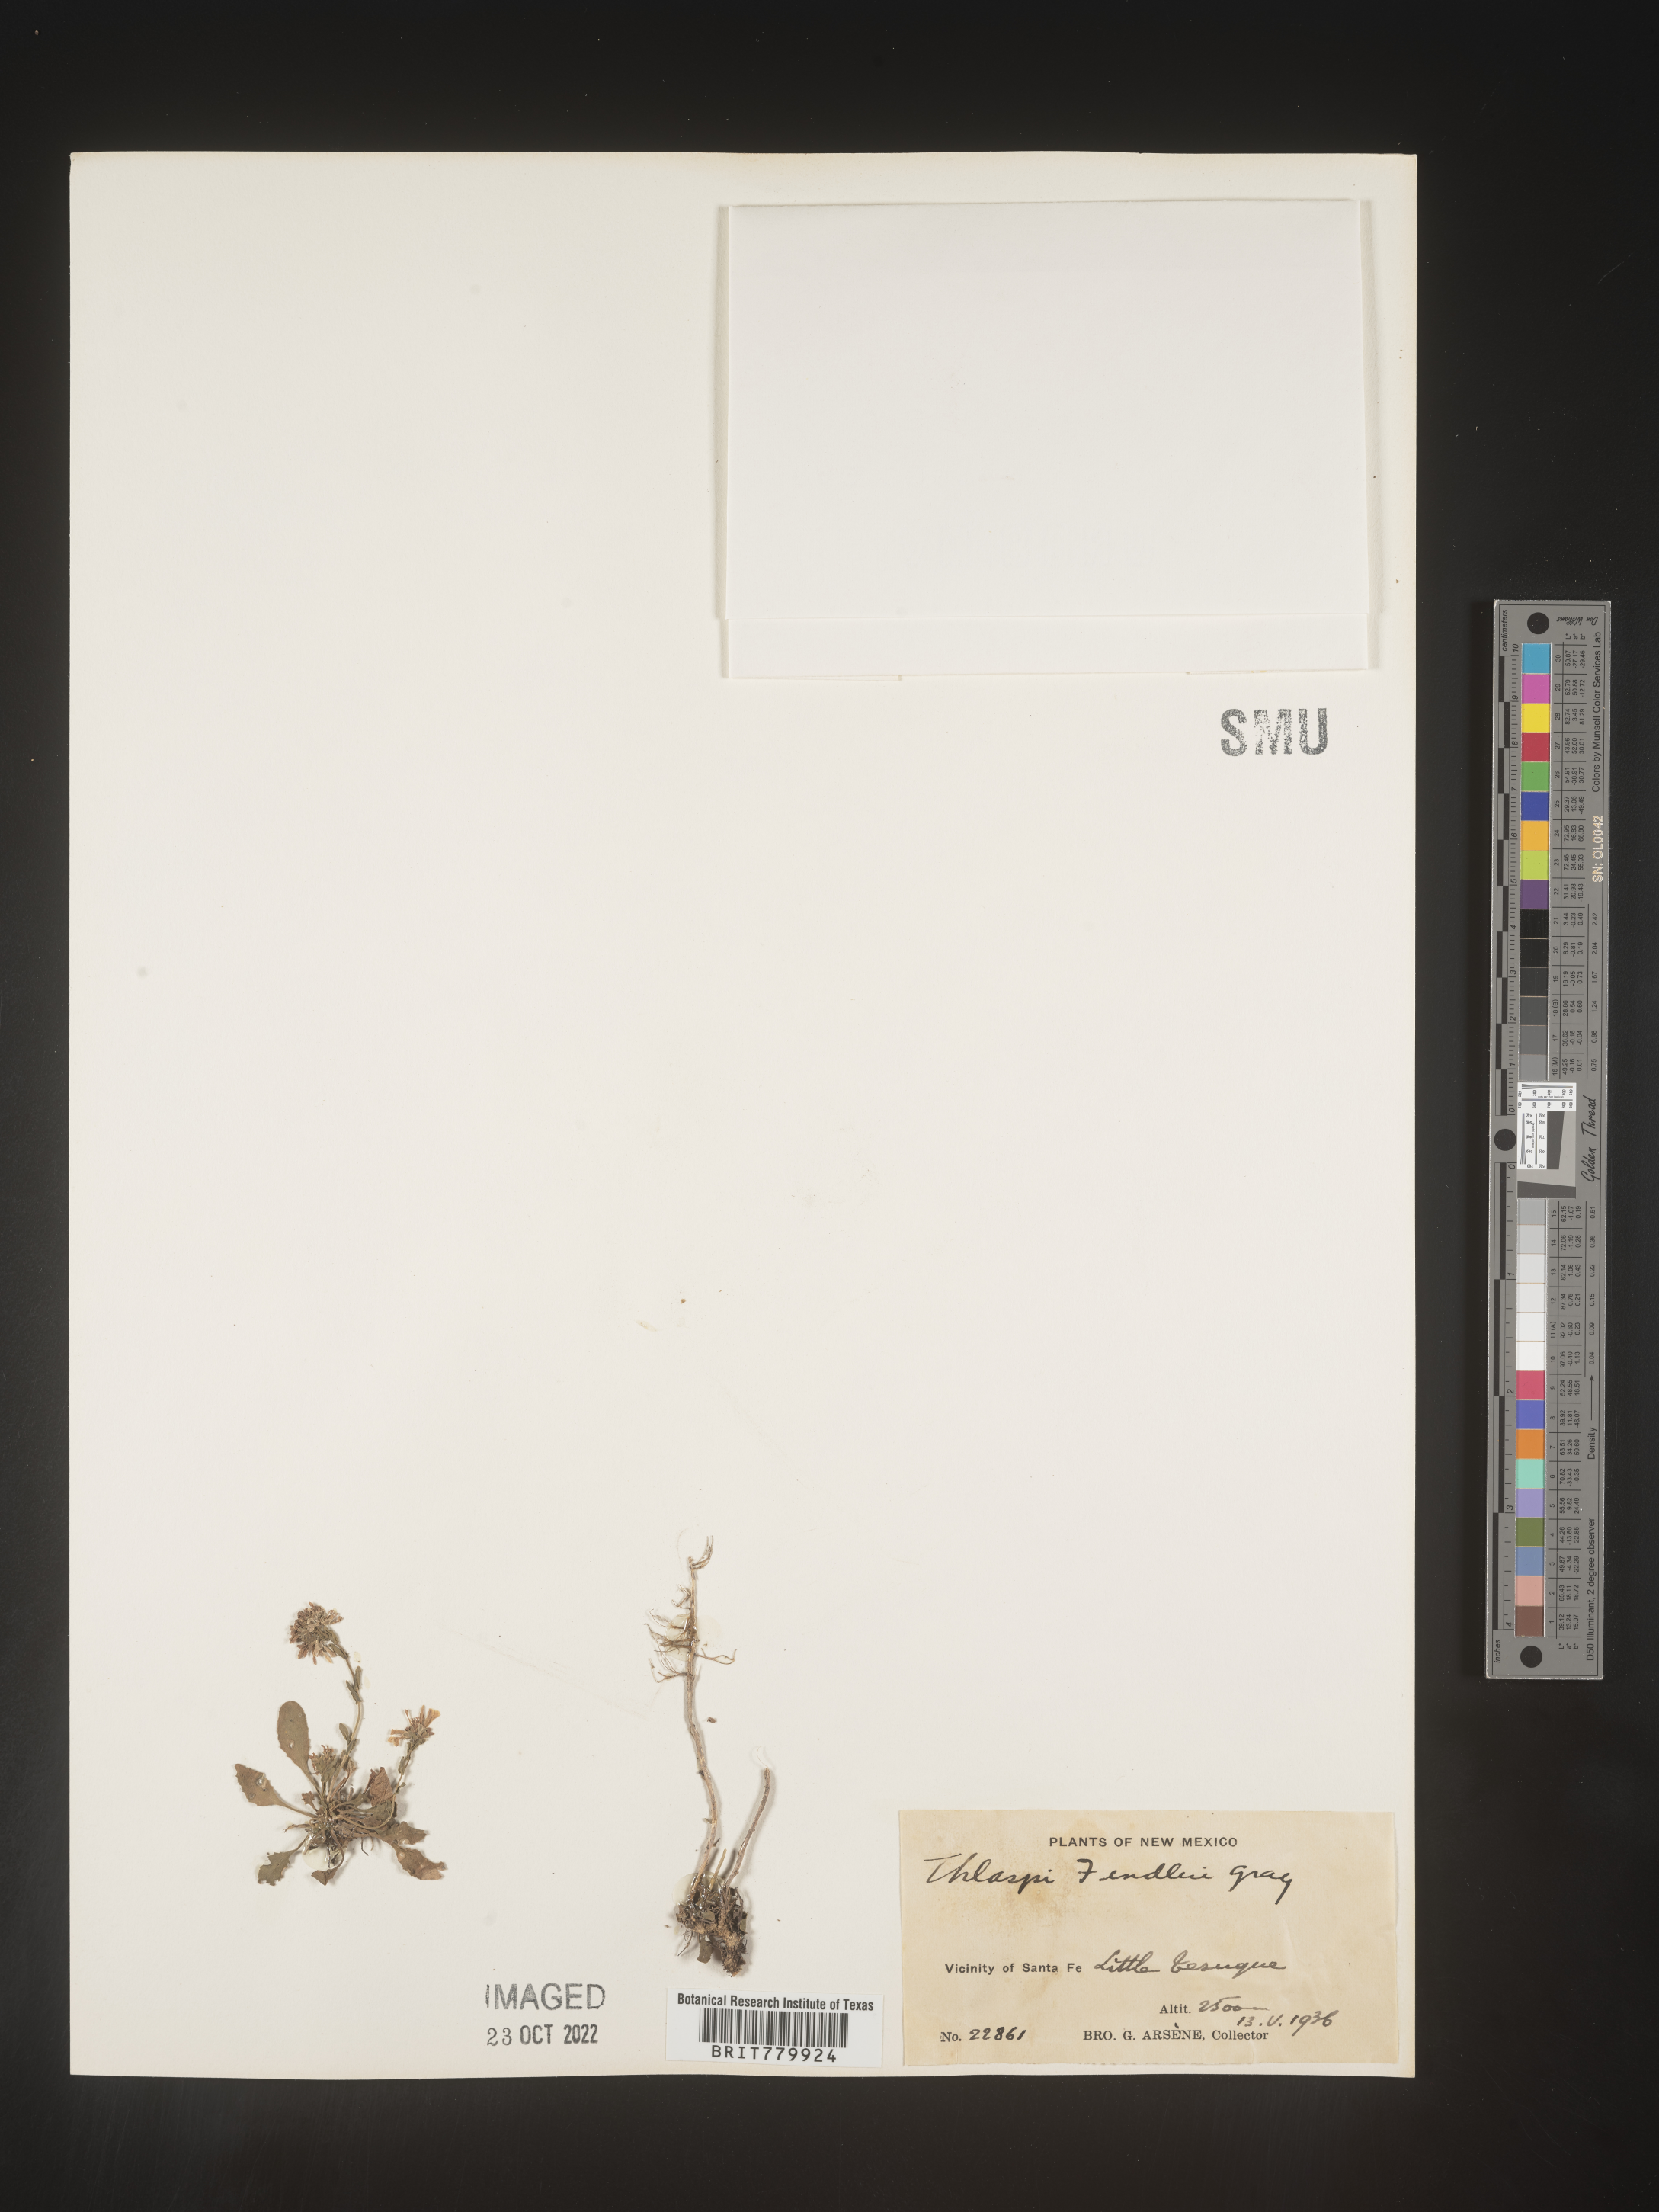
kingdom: Plantae
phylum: Tracheophyta
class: Magnoliopsida
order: Brassicales
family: Brassicaceae
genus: Thlaspi
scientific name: Thlaspi
